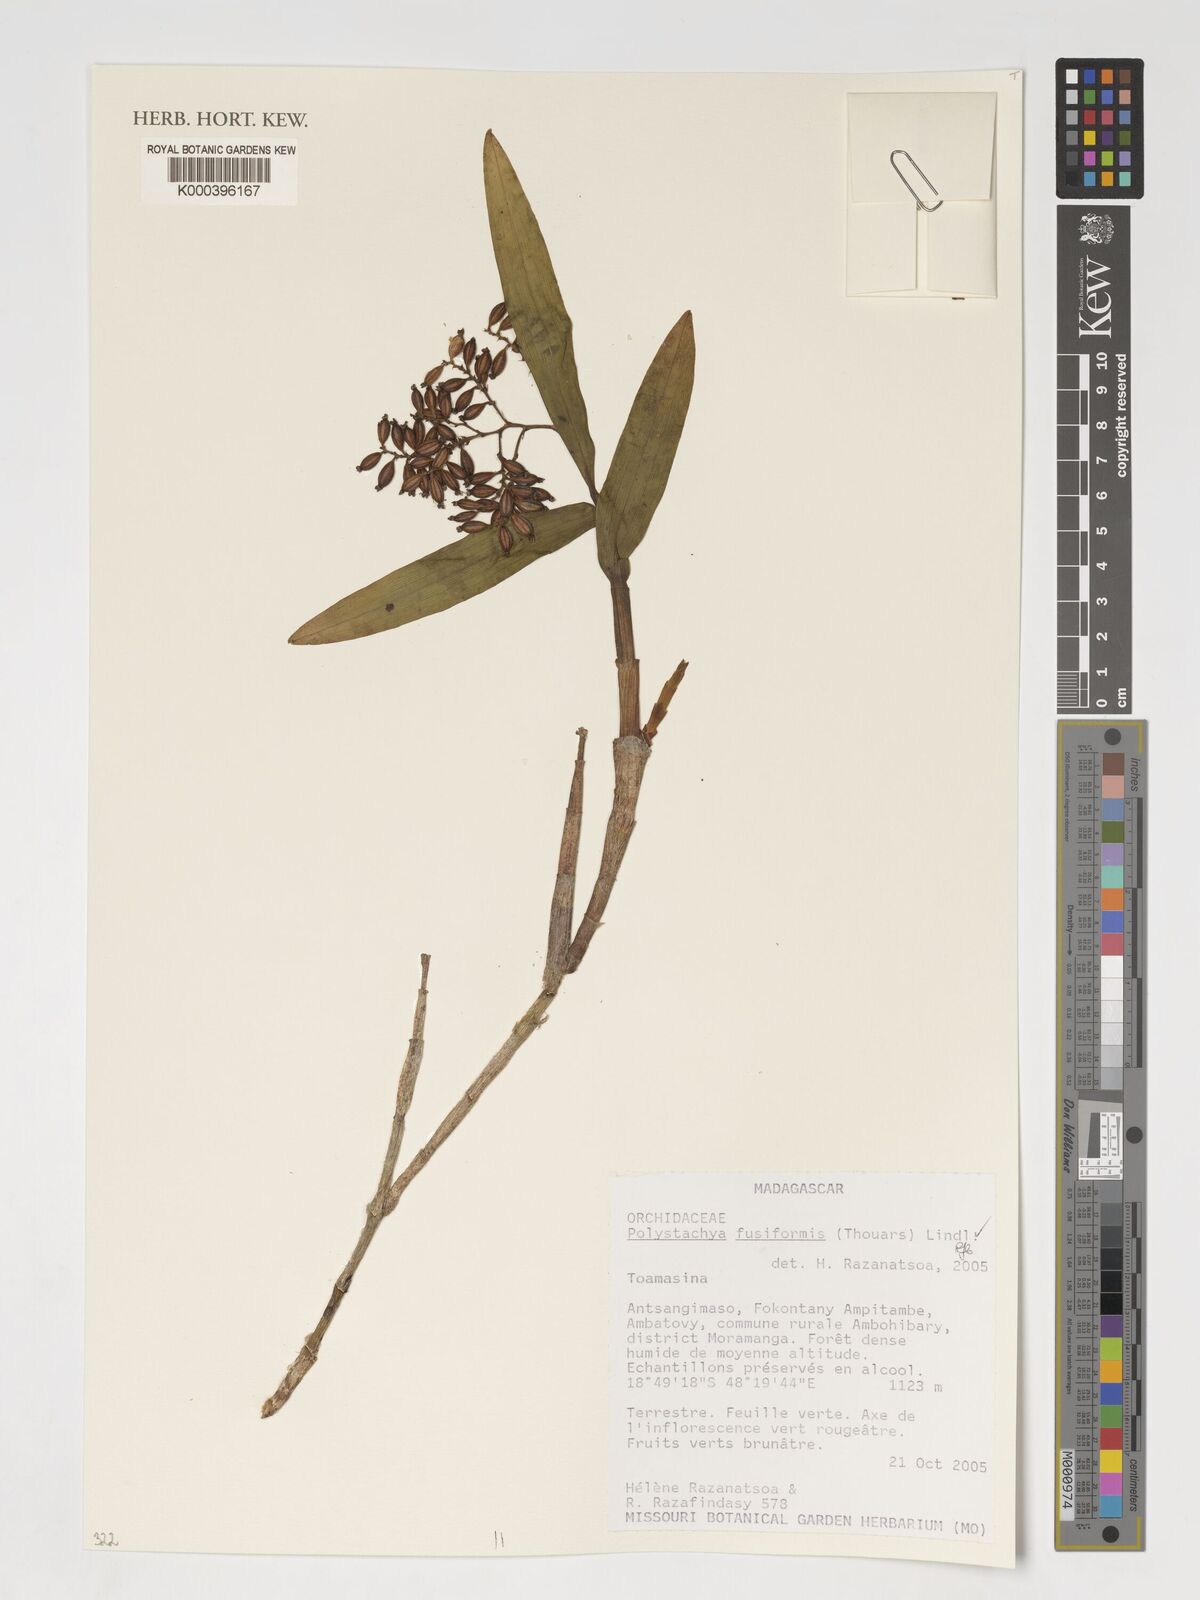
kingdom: Plantae
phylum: Tracheophyta
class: Liliopsida
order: Asparagales
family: Orchidaceae
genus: Polystachya
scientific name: Polystachya fusiformis
